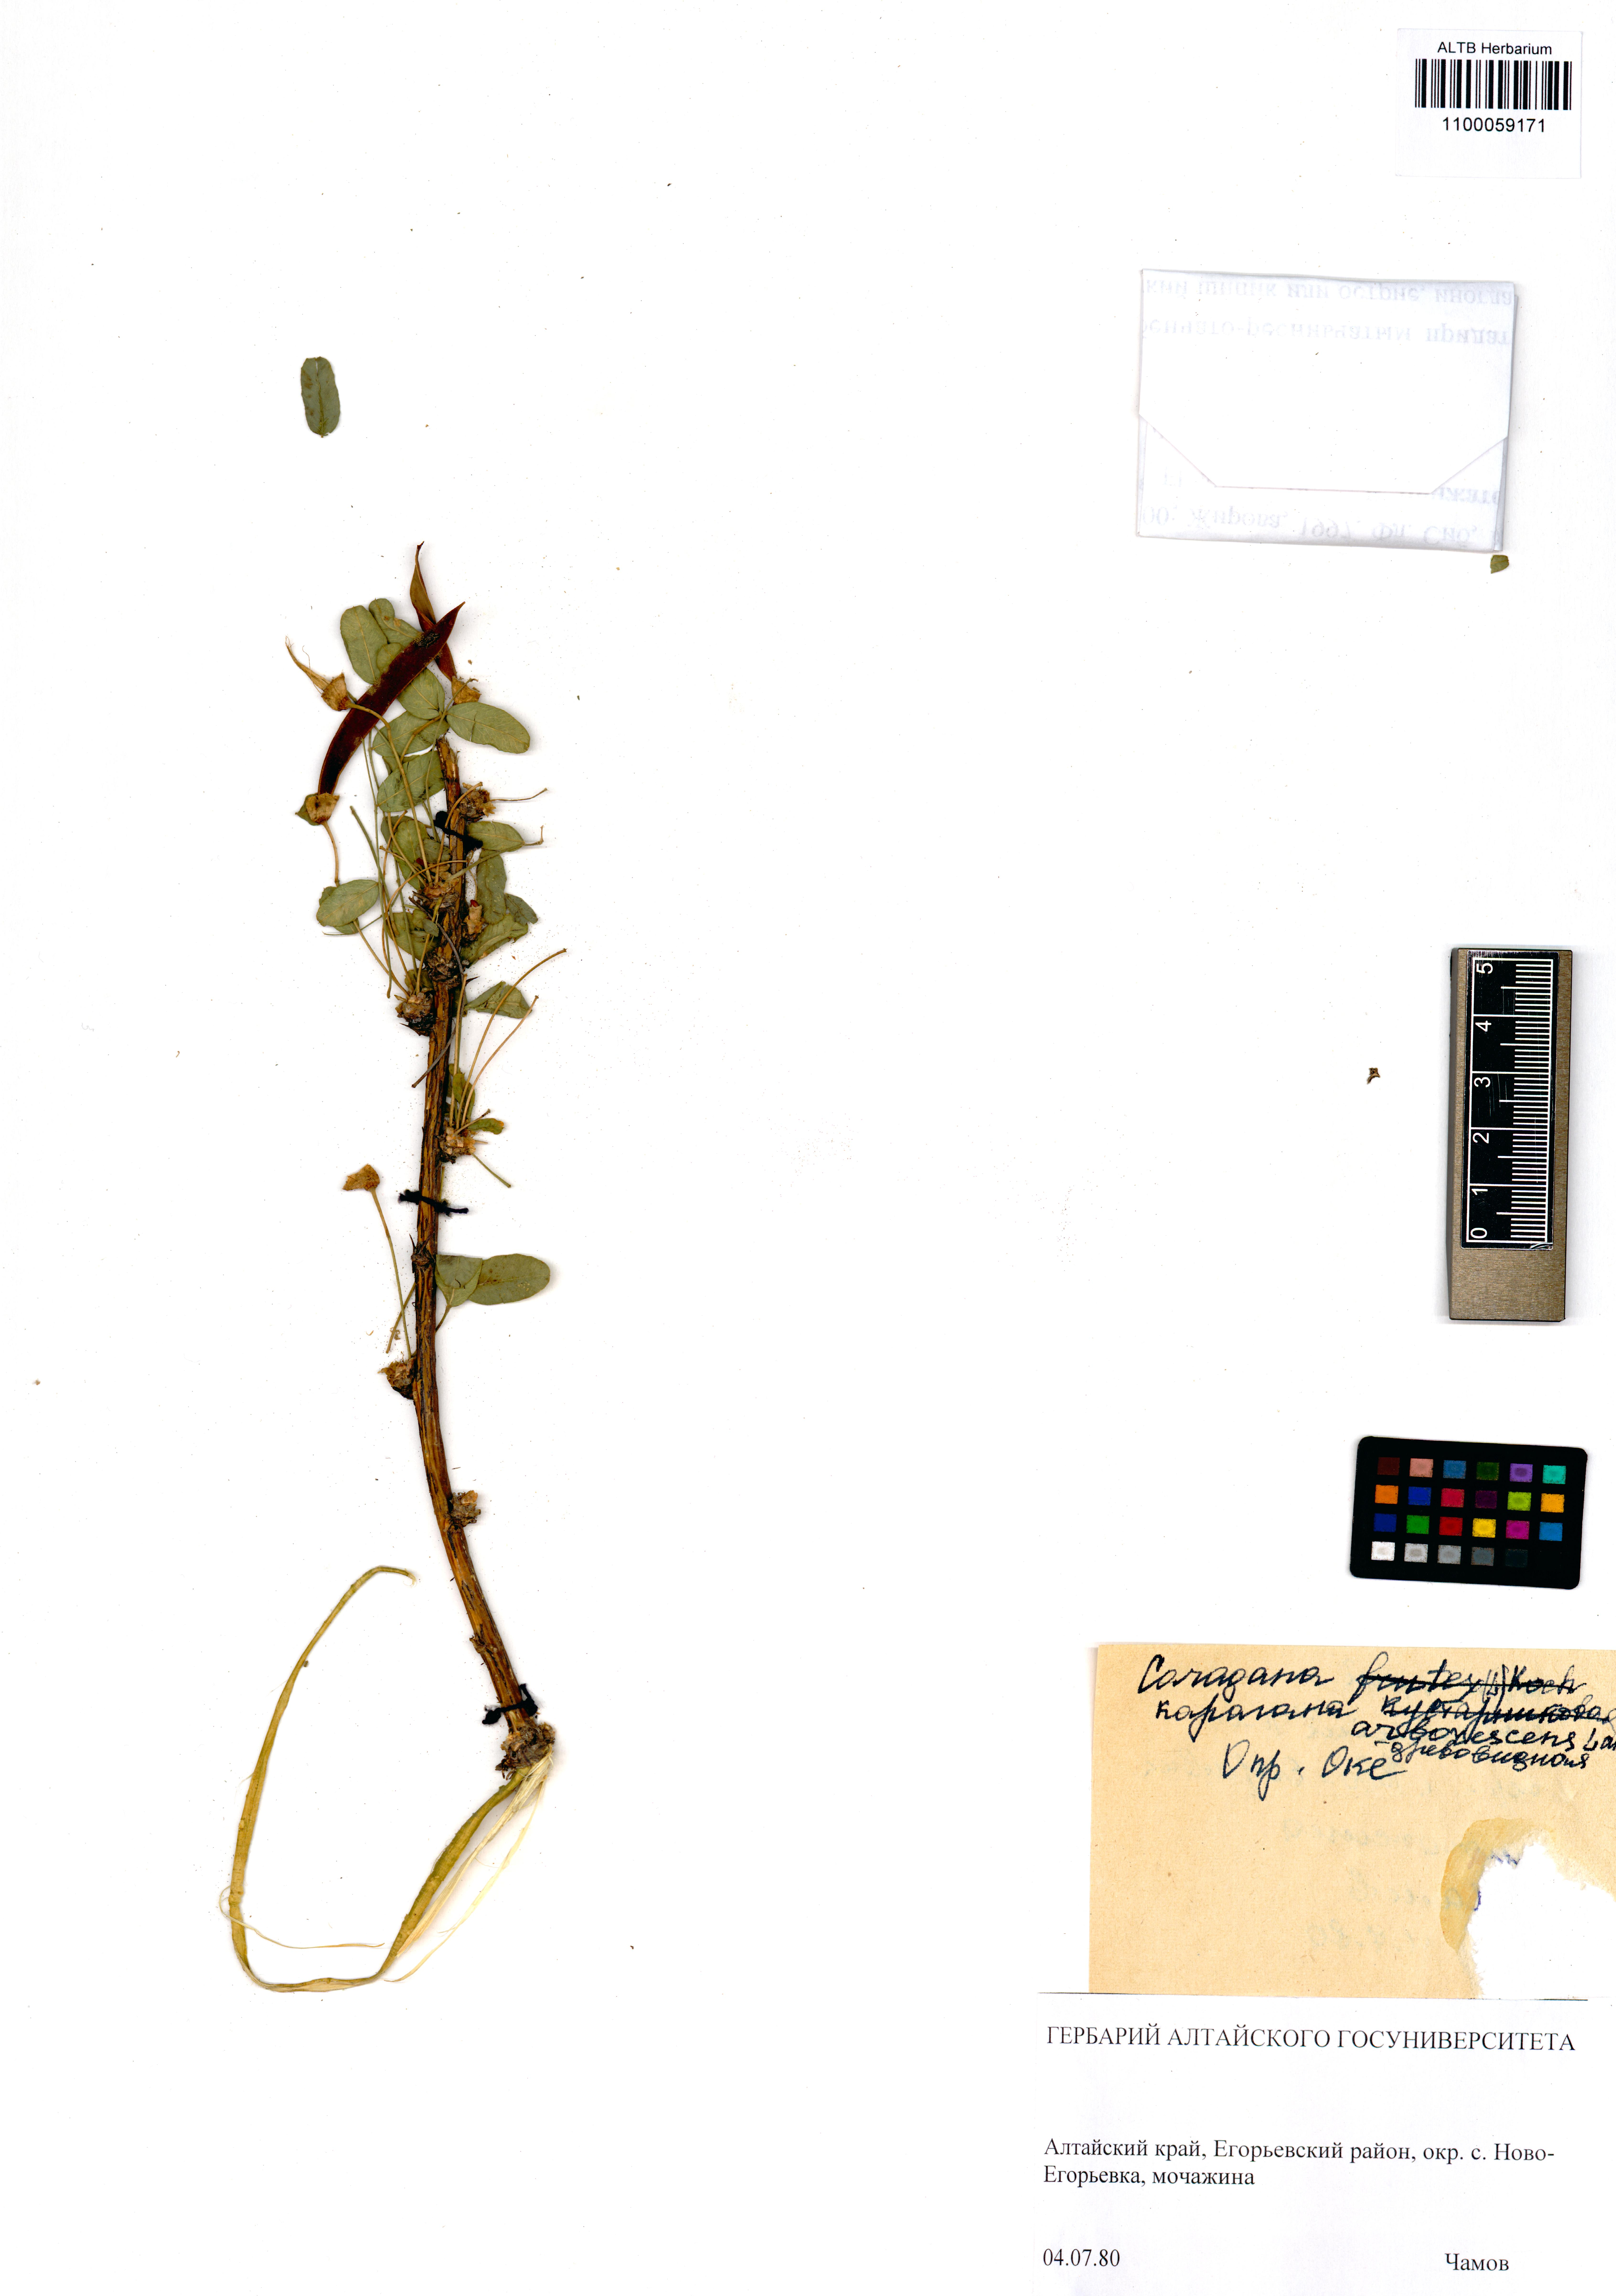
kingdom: Plantae
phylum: Tracheophyta
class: Magnoliopsida
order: Fabales
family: Fabaceae
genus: Caragana
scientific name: Caragana arborescens
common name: Siberian peashrub
